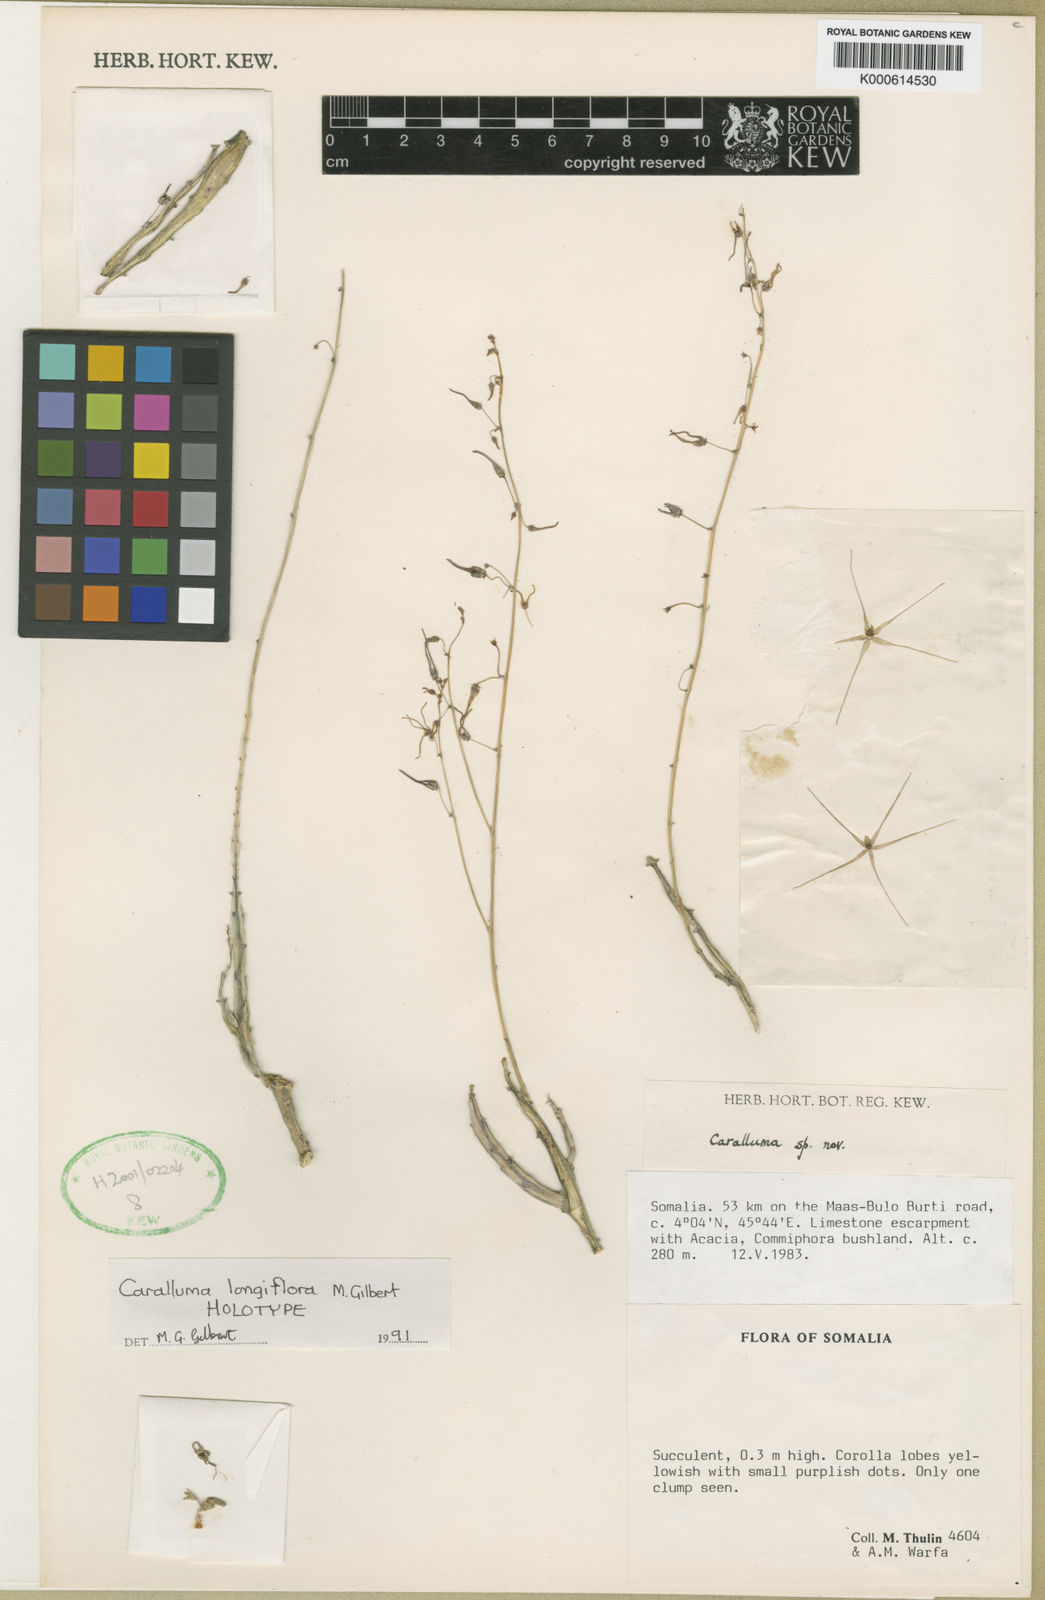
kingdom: Plantae
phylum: Tracheophyta
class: Magnoliopsida
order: Gentianales
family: Apocynaceae
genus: Ceropegia
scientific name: Ceropegia longiflorica
